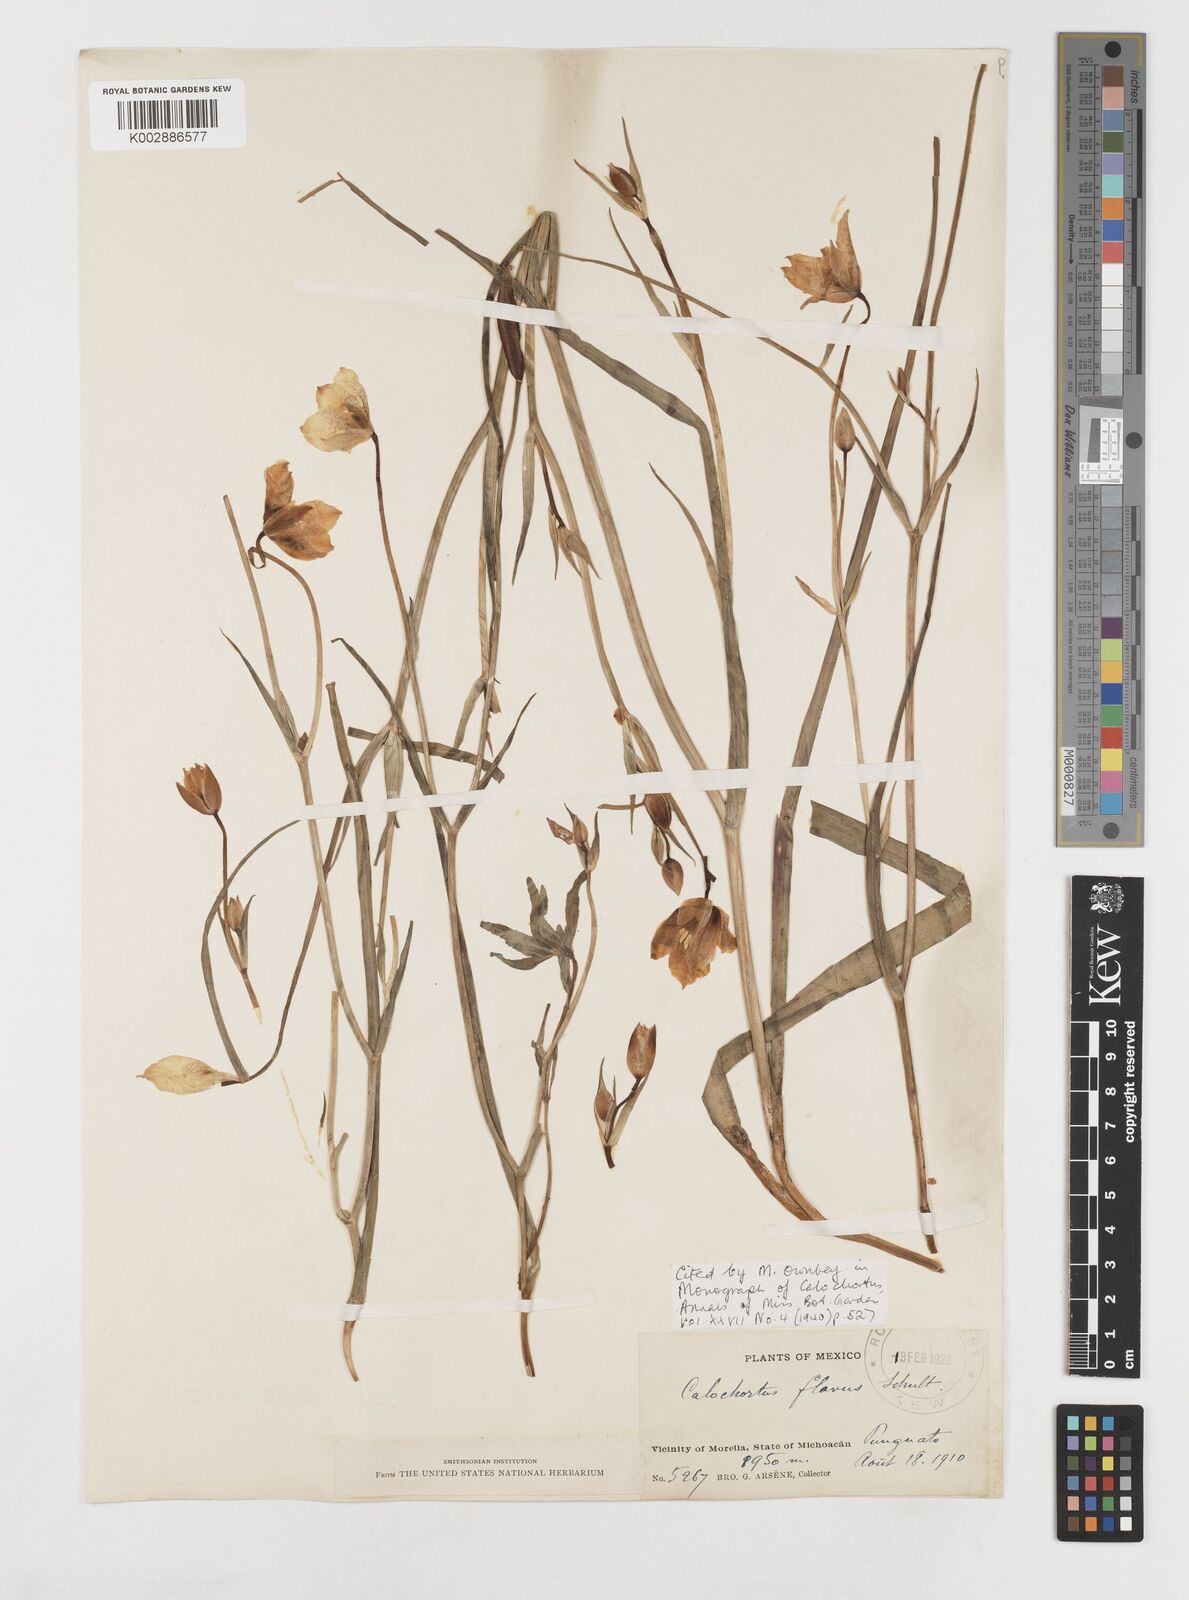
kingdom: Plantae
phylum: Tracheophyta
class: Liliopsida
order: Liliales
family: Liliaceae
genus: Calochortus
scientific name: Calochortus barbatus
